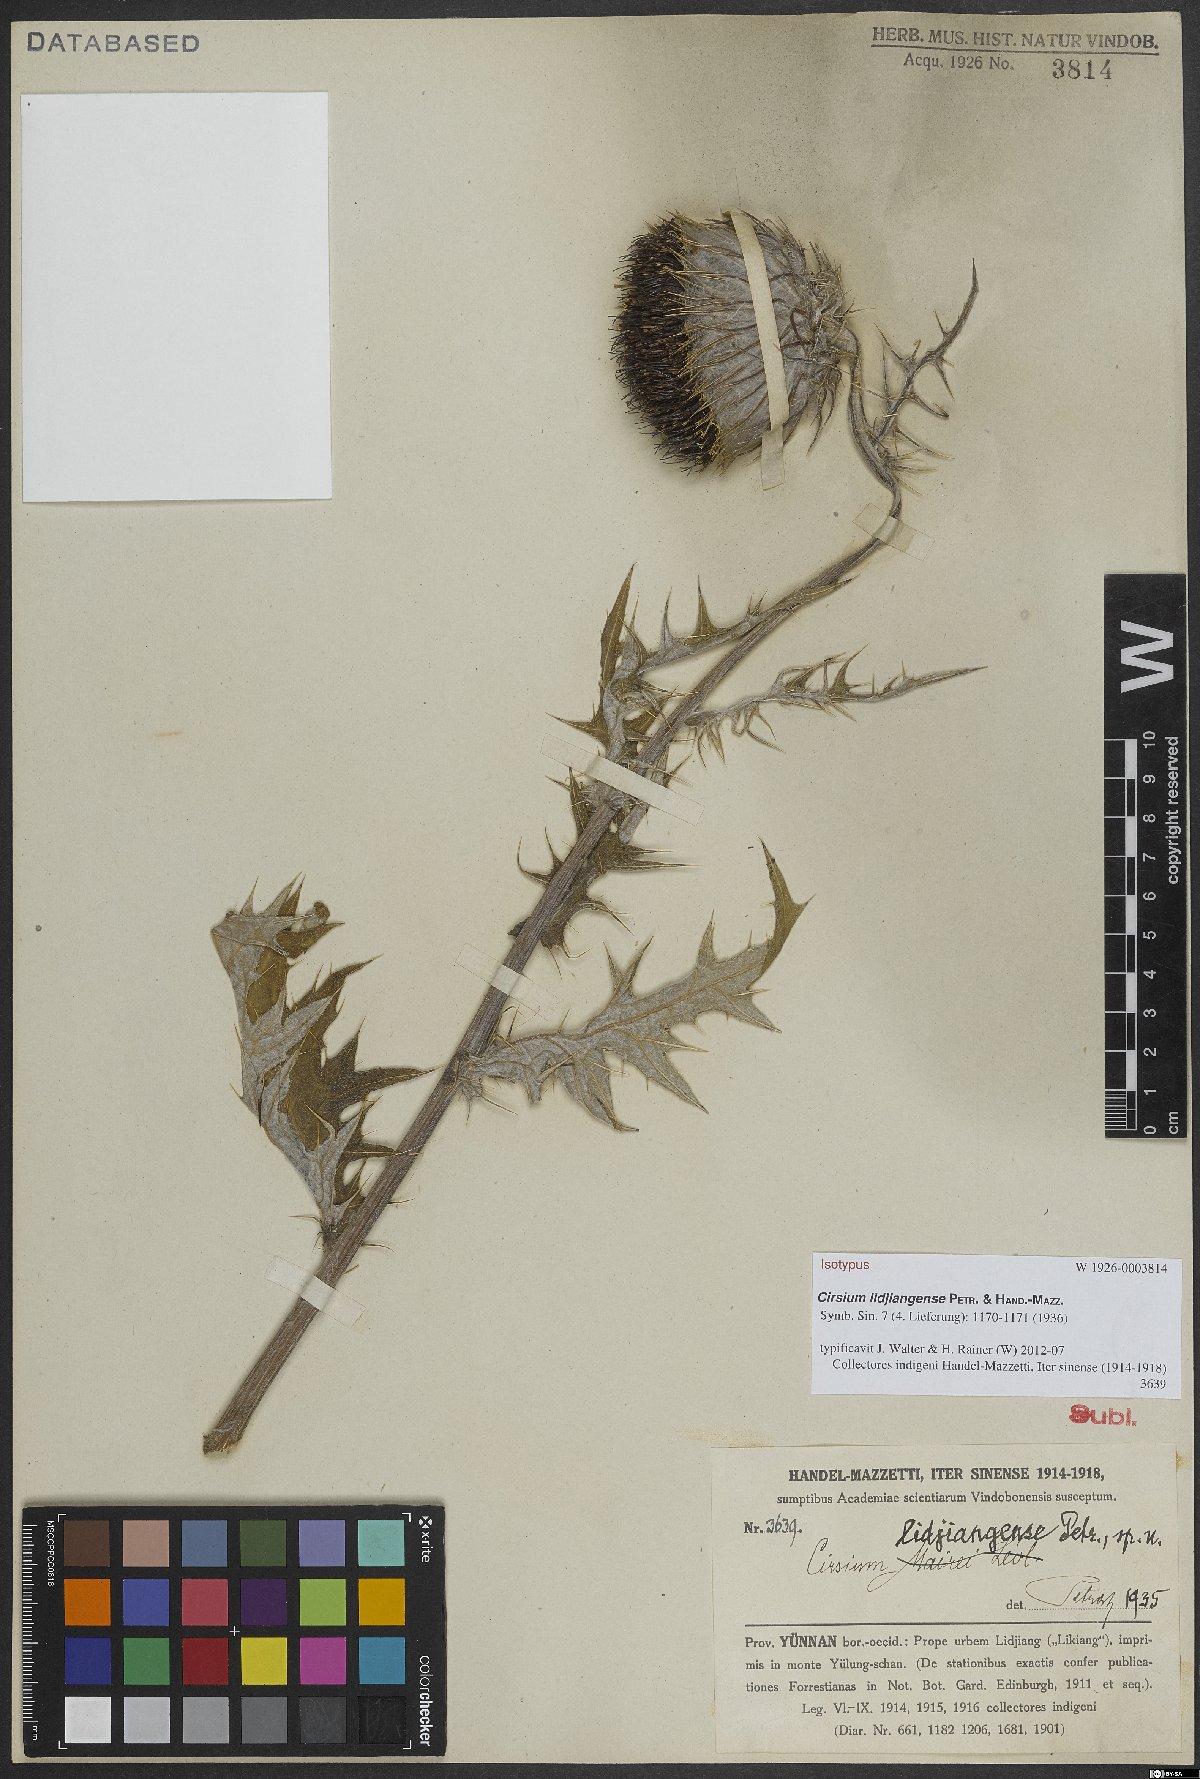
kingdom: Plantae
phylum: Tracheophyta
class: Magnoliopsida
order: Asterales
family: Asteraceae
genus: Lophiolepis
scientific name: Lophiolepis lidjiangensis
